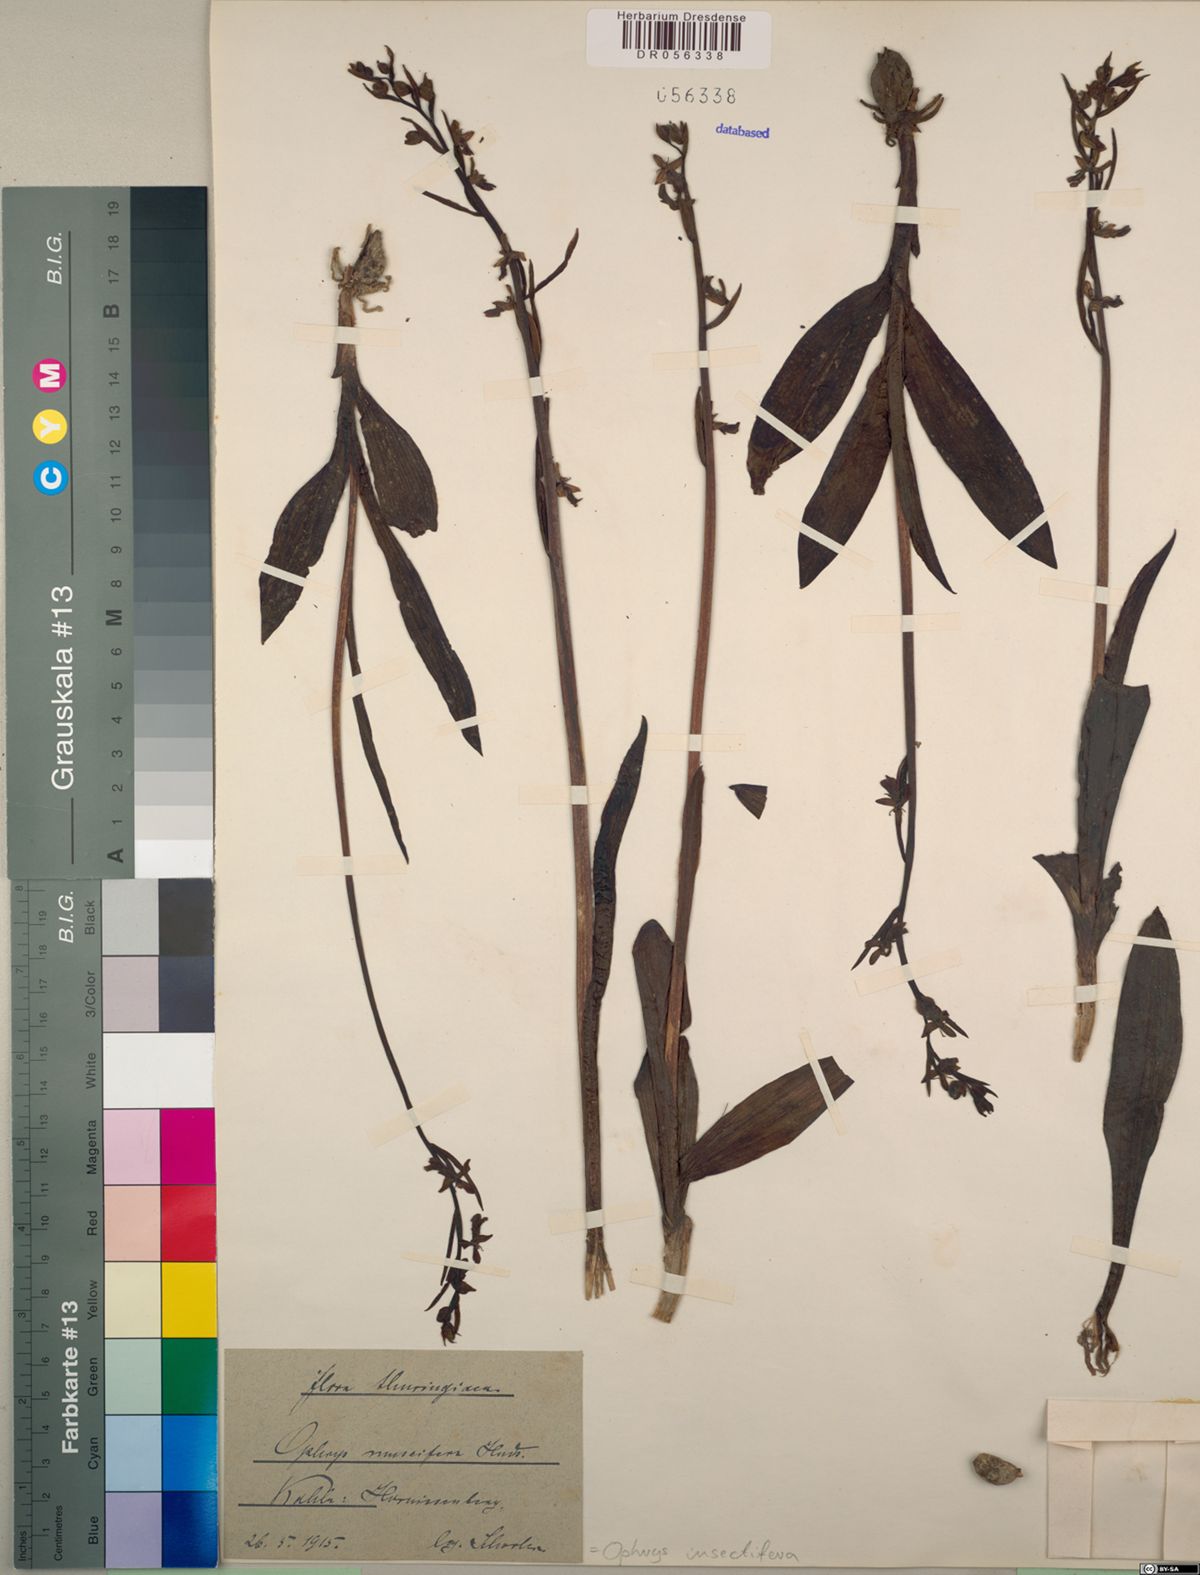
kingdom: Plantae
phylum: Tracheophyta
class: Liliopsida
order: Asparagales
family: Orchidaceae
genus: Ophrys
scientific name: Ophrys insectifera
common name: Fly orchid
